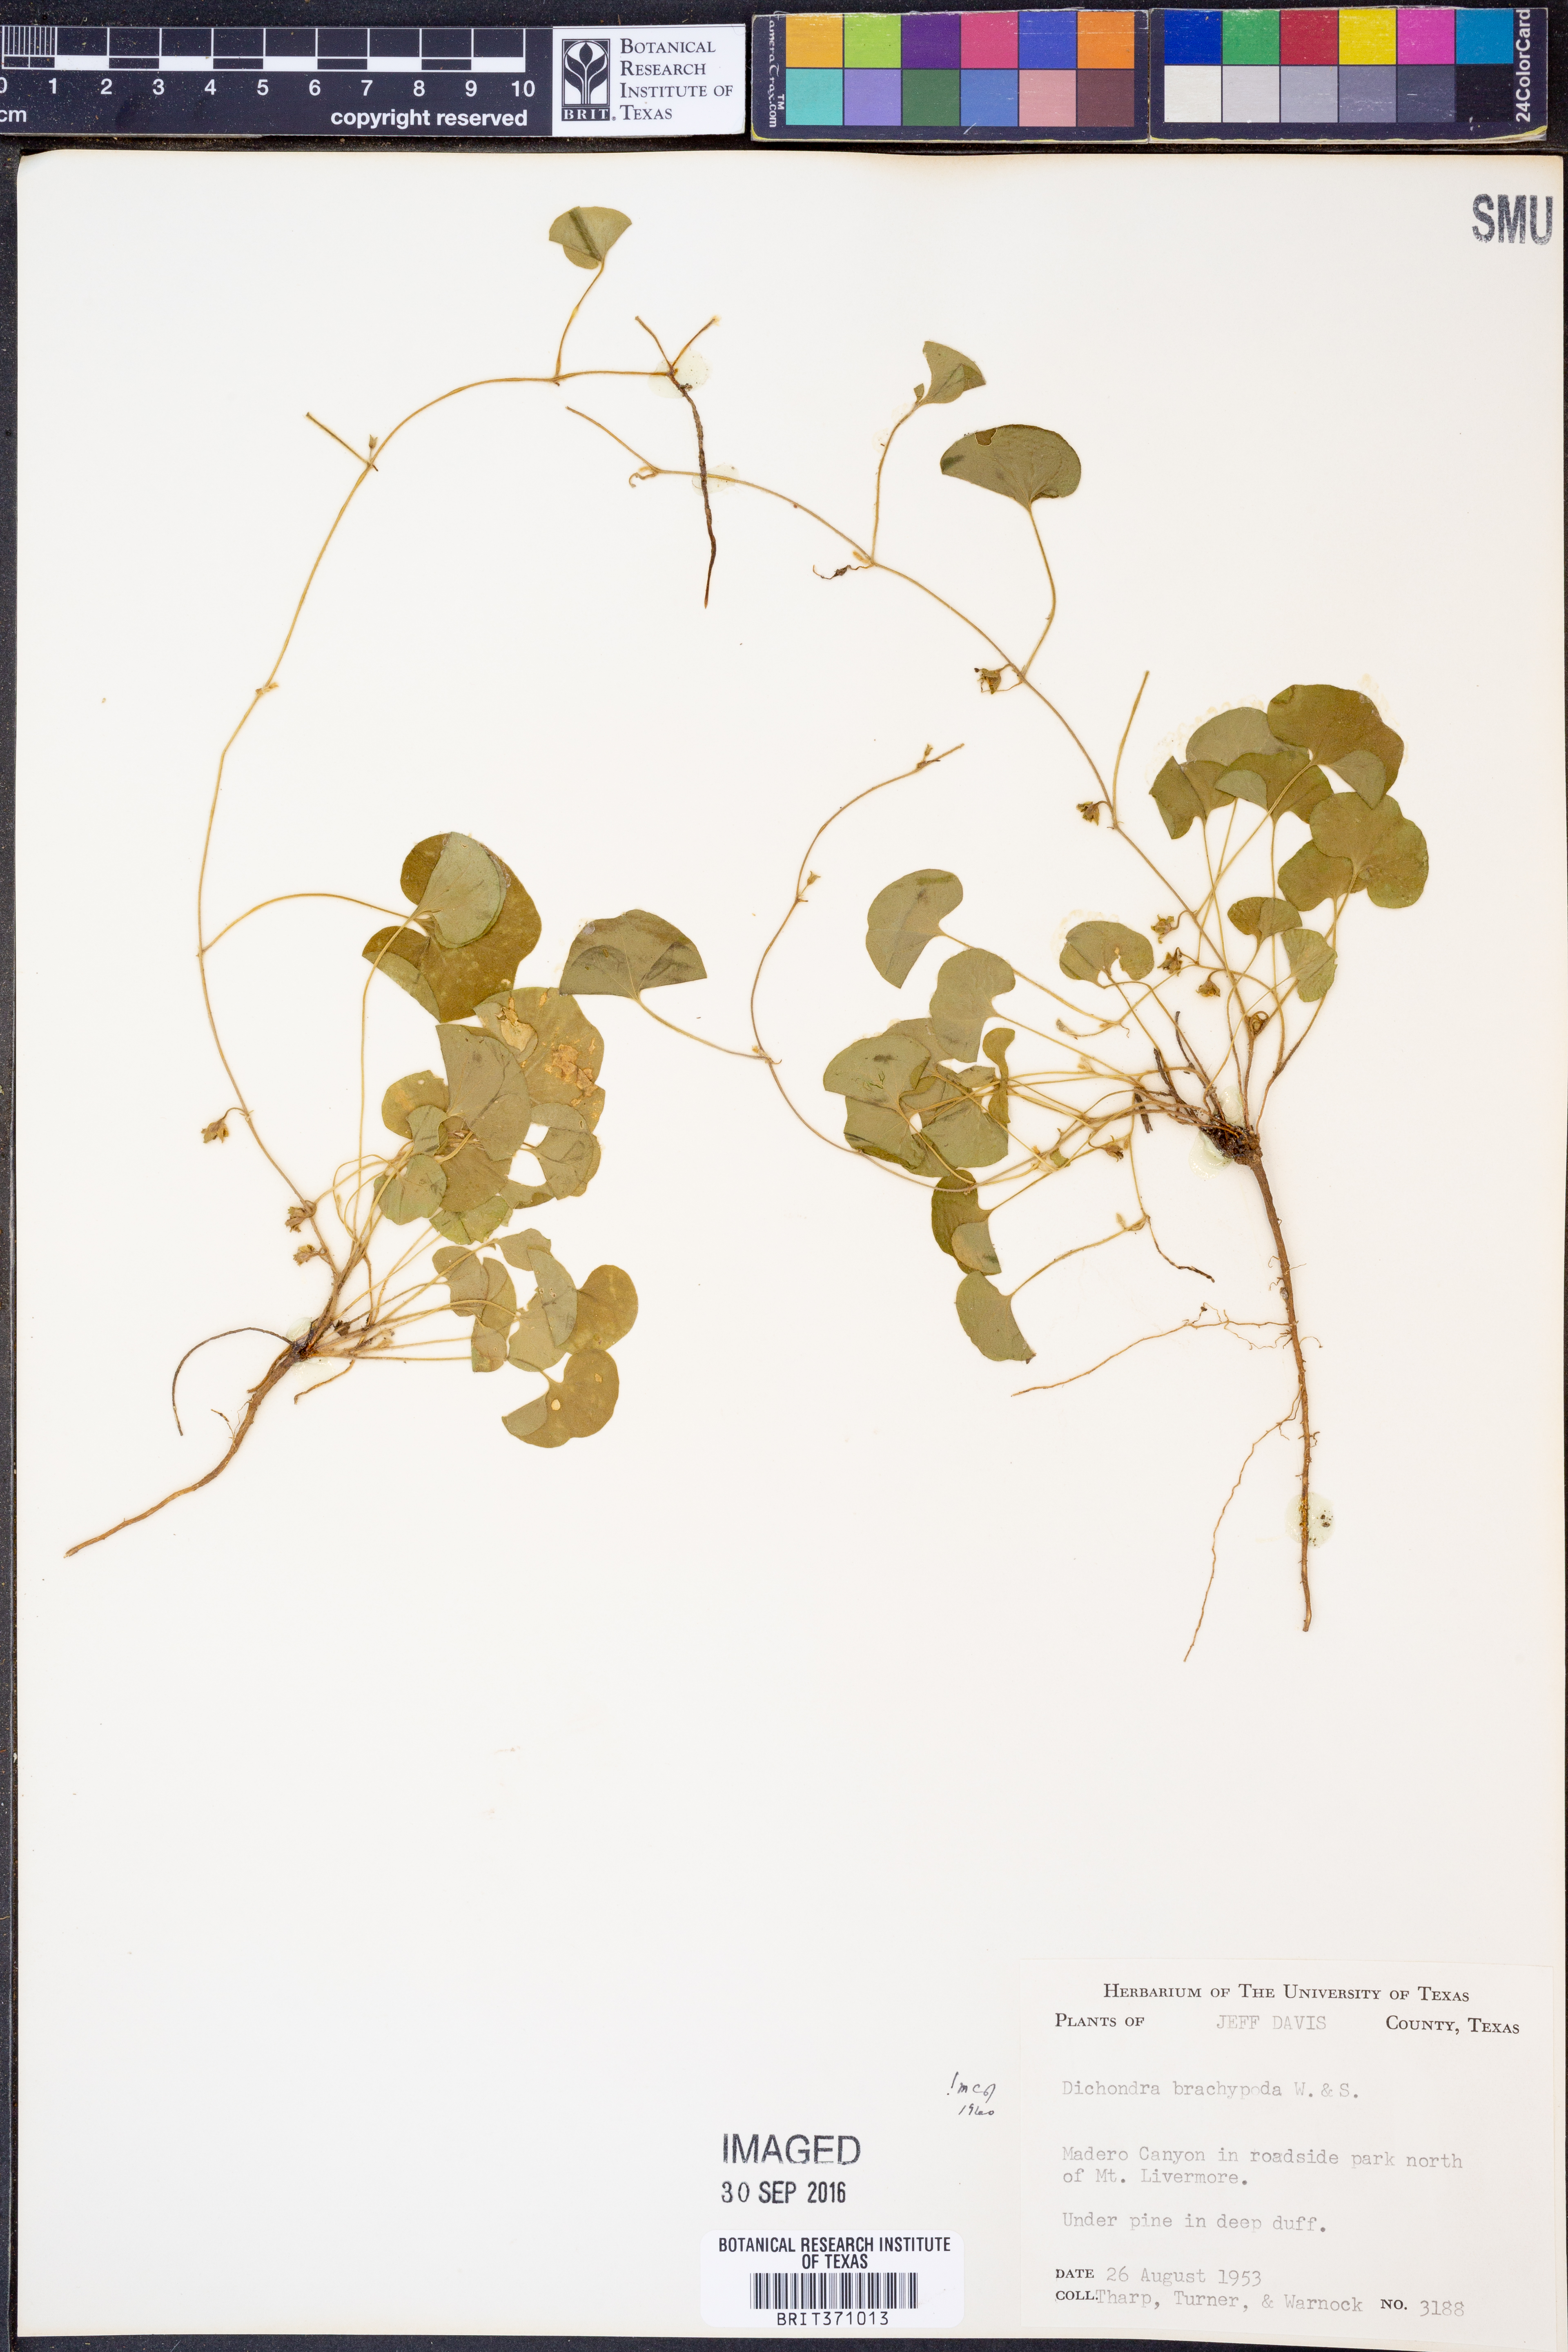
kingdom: Plantae
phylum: Tracheophyta
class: Magnoliopsida
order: Solanales
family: Convolvulaceae
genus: Dichondra
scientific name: Dichondra brachypoda
